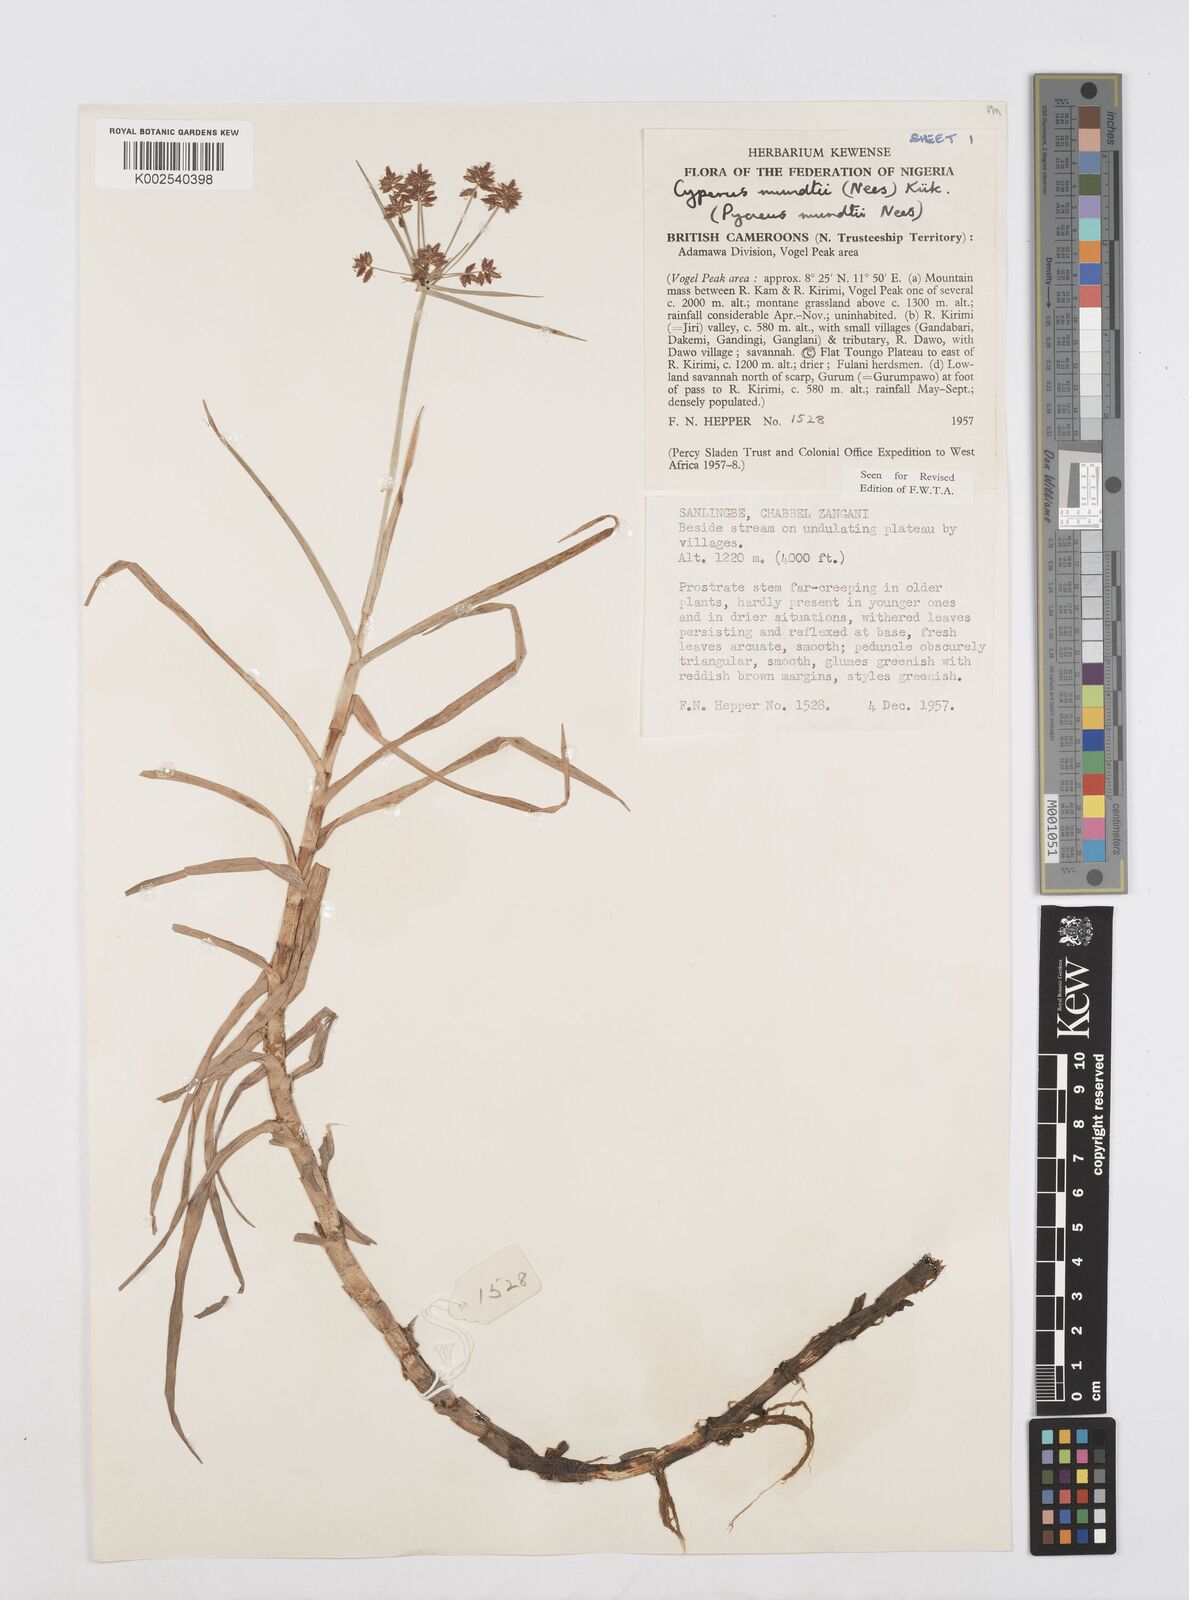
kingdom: Plantae
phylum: Tracheophyta
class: Liliopsida
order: Poales
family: Cyperaceae
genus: Cyperus
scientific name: Cyperus mundii
